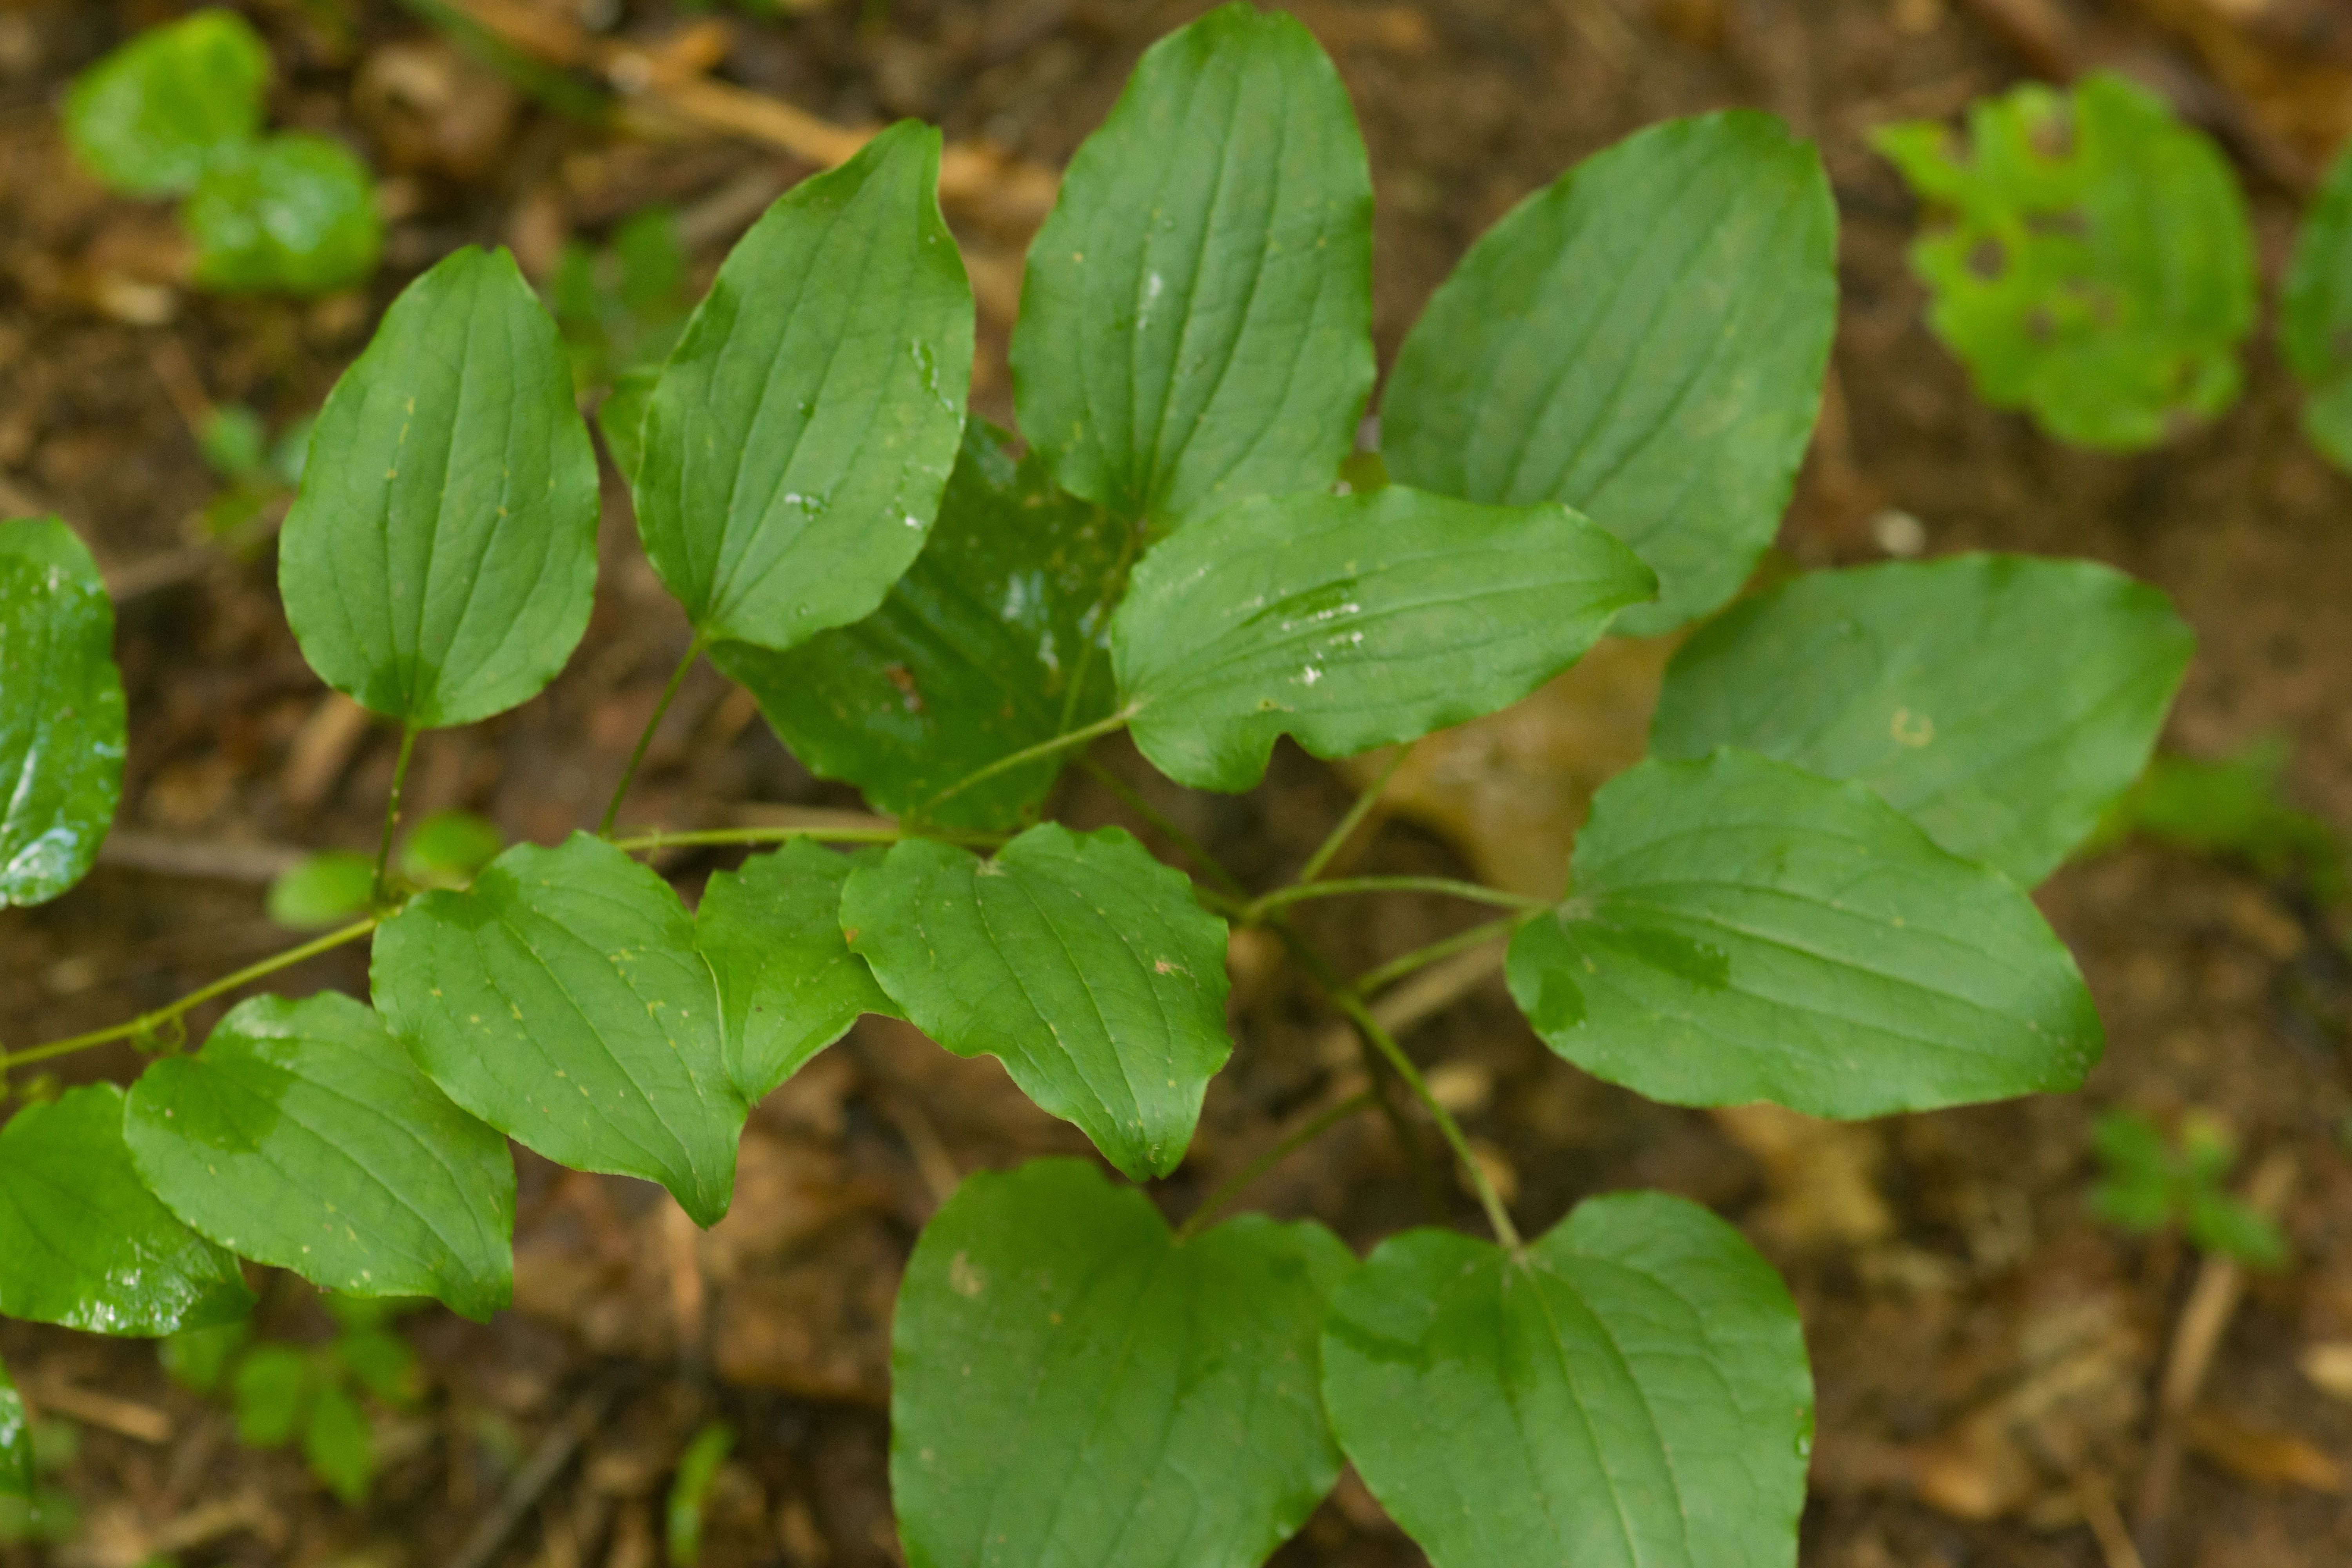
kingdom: Plantae
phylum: Tracheophyta
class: Liliopsida
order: Liliales
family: Smilacaceae
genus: Smilax
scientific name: Smilax herbacea
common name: Jacob's-ladder
